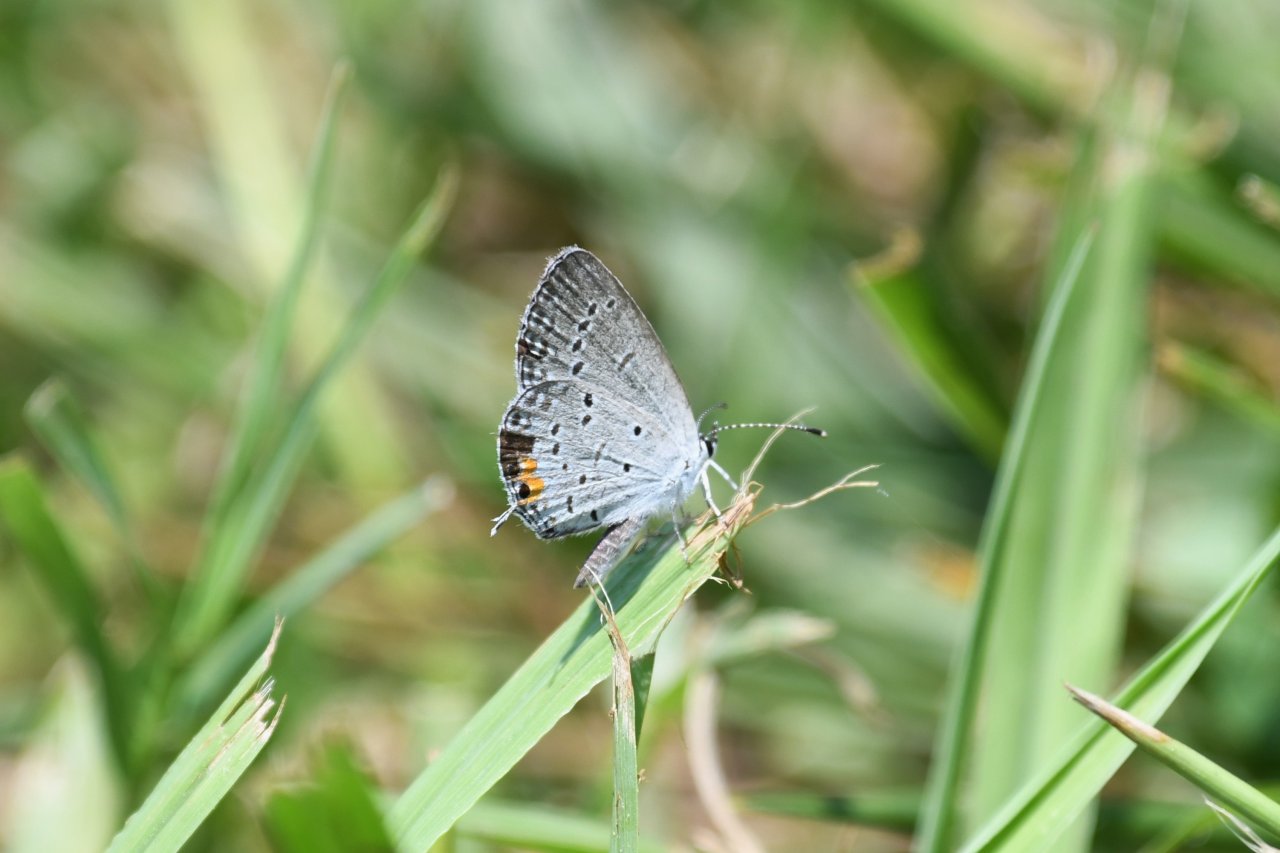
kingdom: Animalia
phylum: Arthropoda
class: Insecta
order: Lepidoptera
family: Lycaenidae
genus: Elkalyce
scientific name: Elkalyce comyntas
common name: Eastern Tailed-Blue
